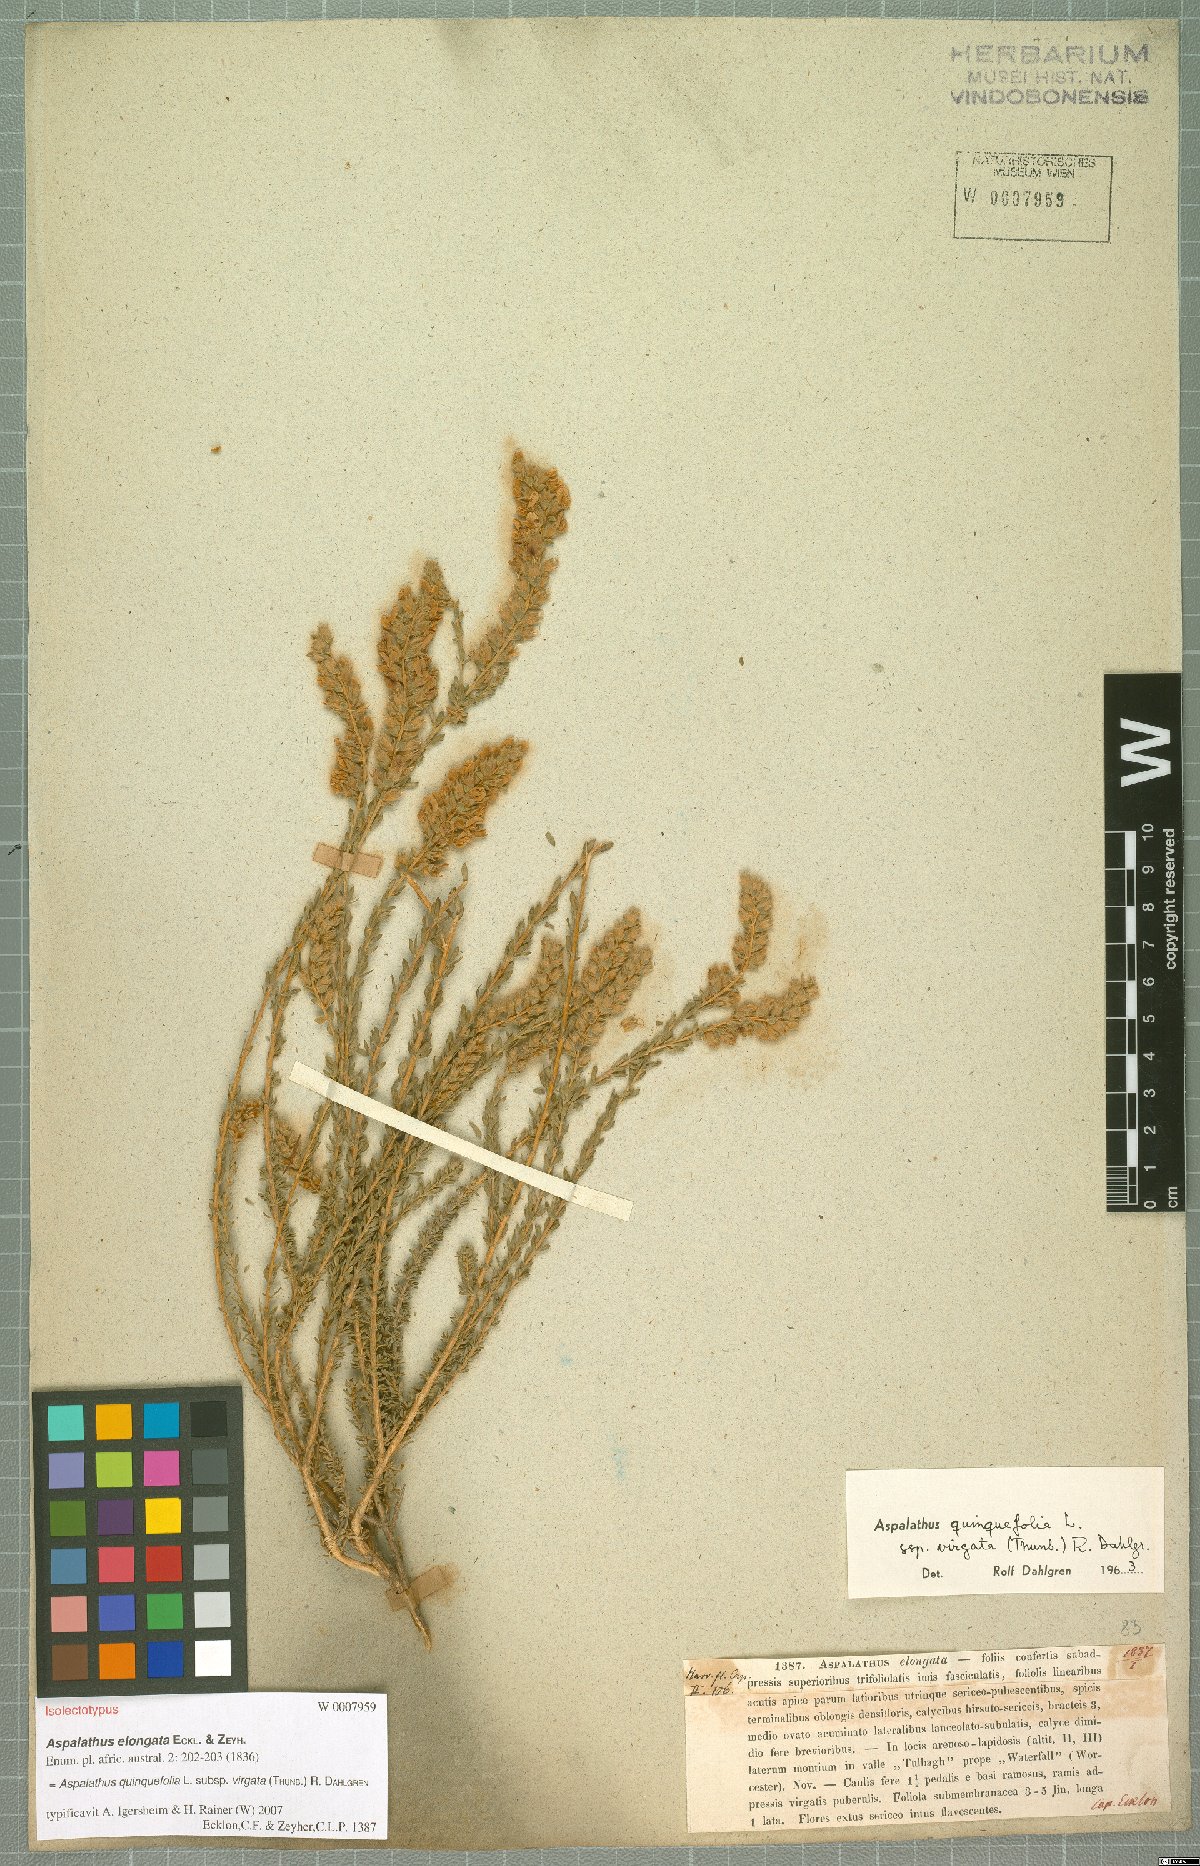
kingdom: Plantae
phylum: Tracheophyta
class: Magnoliopsida
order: Fabales
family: Fabaceae
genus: Aspalathus
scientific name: Aspalathus quinquefolia
